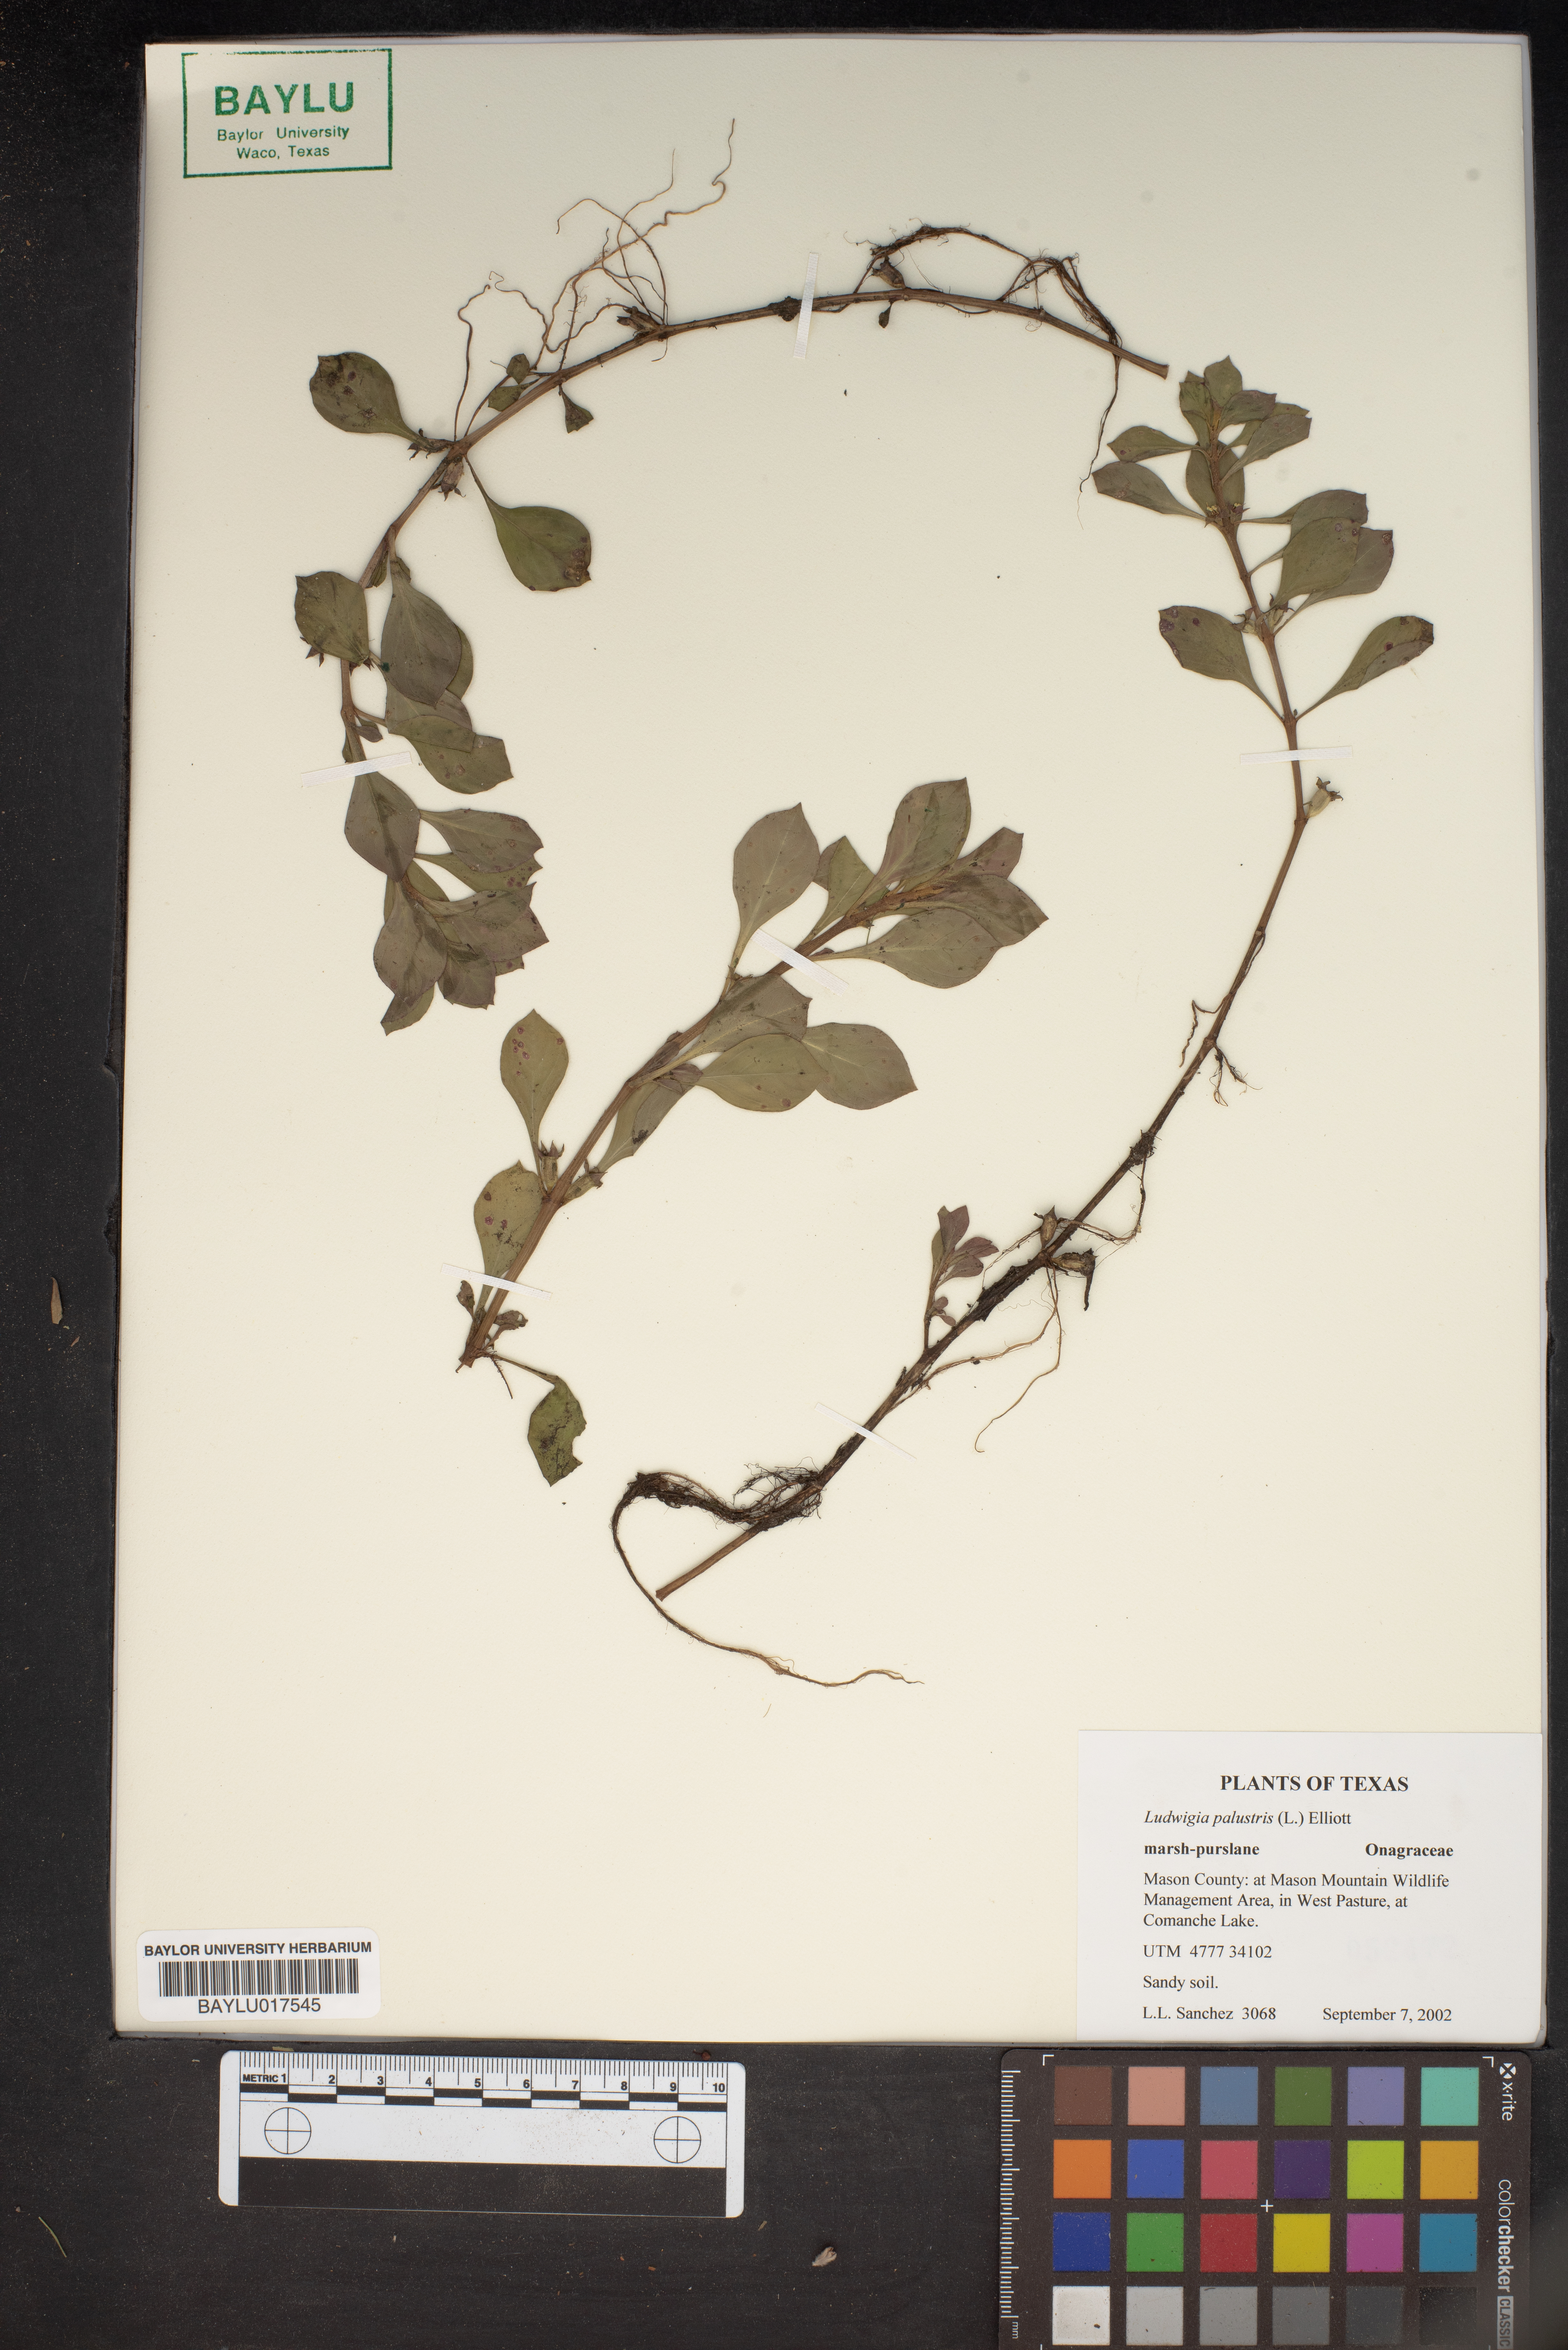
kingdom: Plantae
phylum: Tracheophyta
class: Magnoliopsida
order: Myrtales
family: Onagraceae
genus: Ludwigia
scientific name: Ludwigia palustris
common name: Hampshire-purslane
